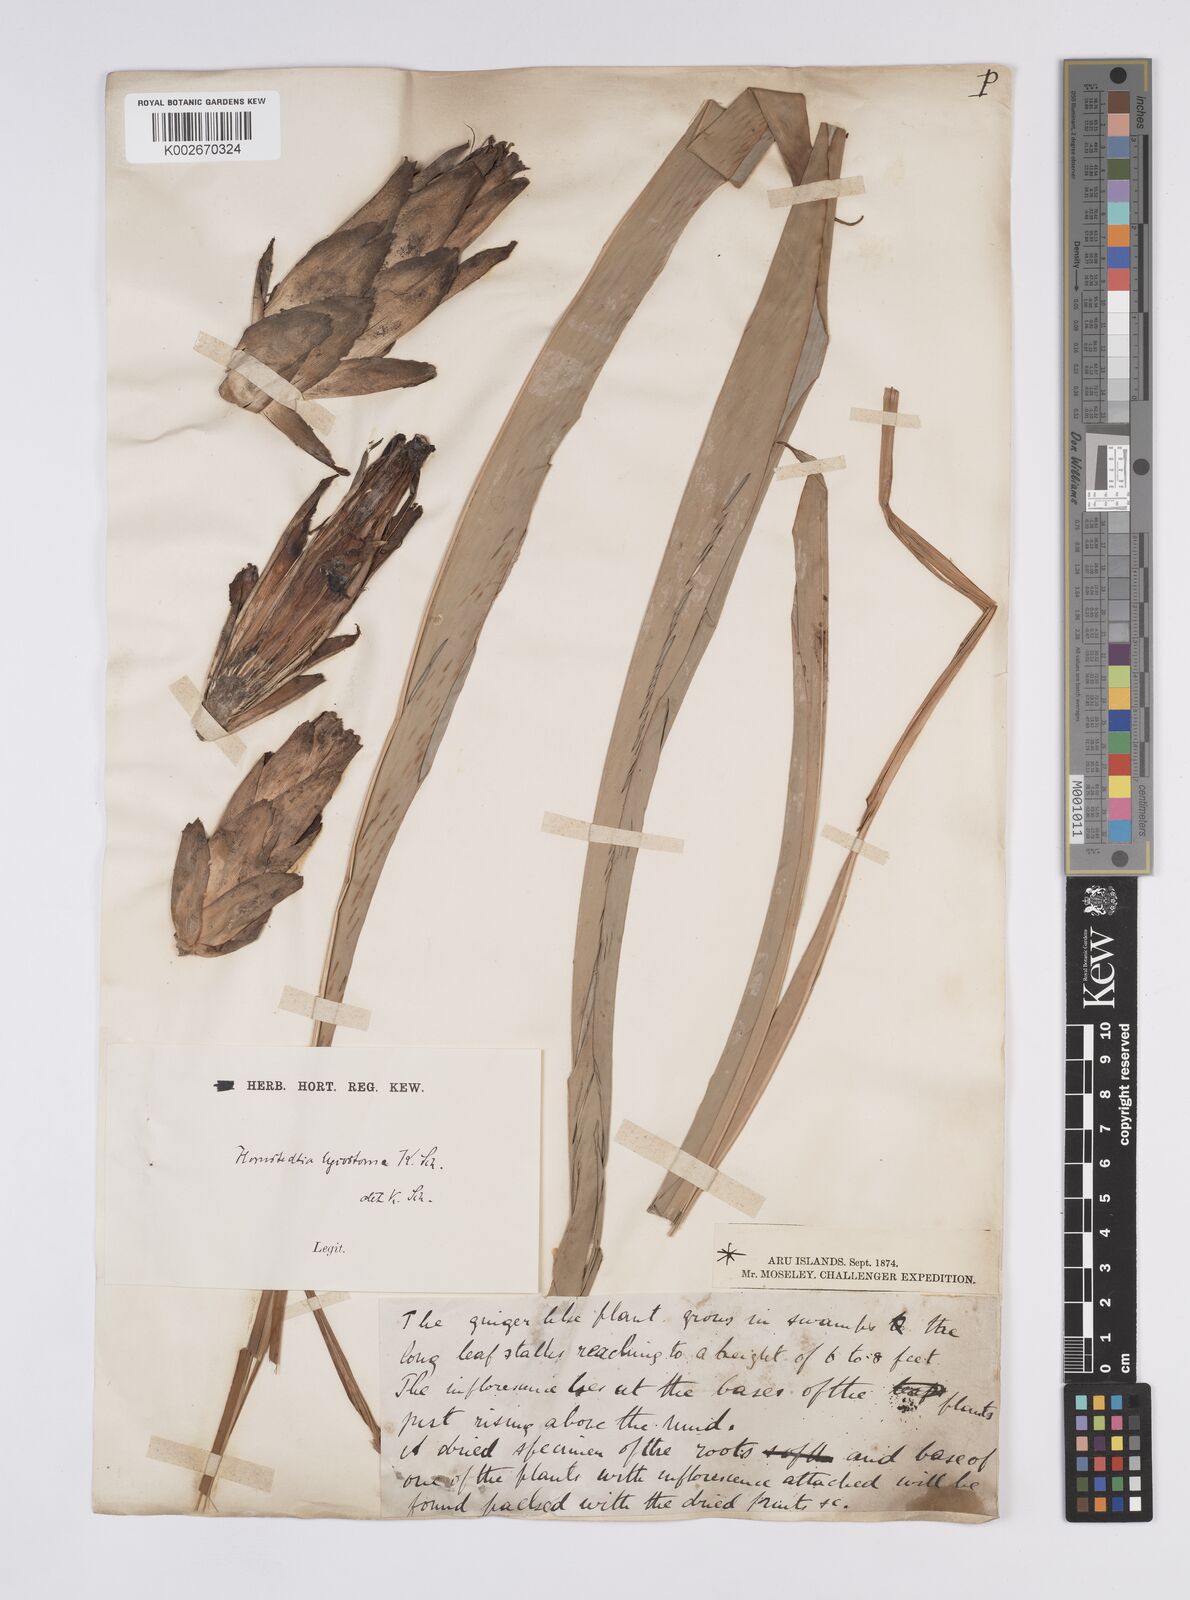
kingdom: Plantae
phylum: Tracheophyta
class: Liliopsida
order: Zingiberales
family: Zingiberaceae
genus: Hornstedtia
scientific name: Hornstedtia scottiana
